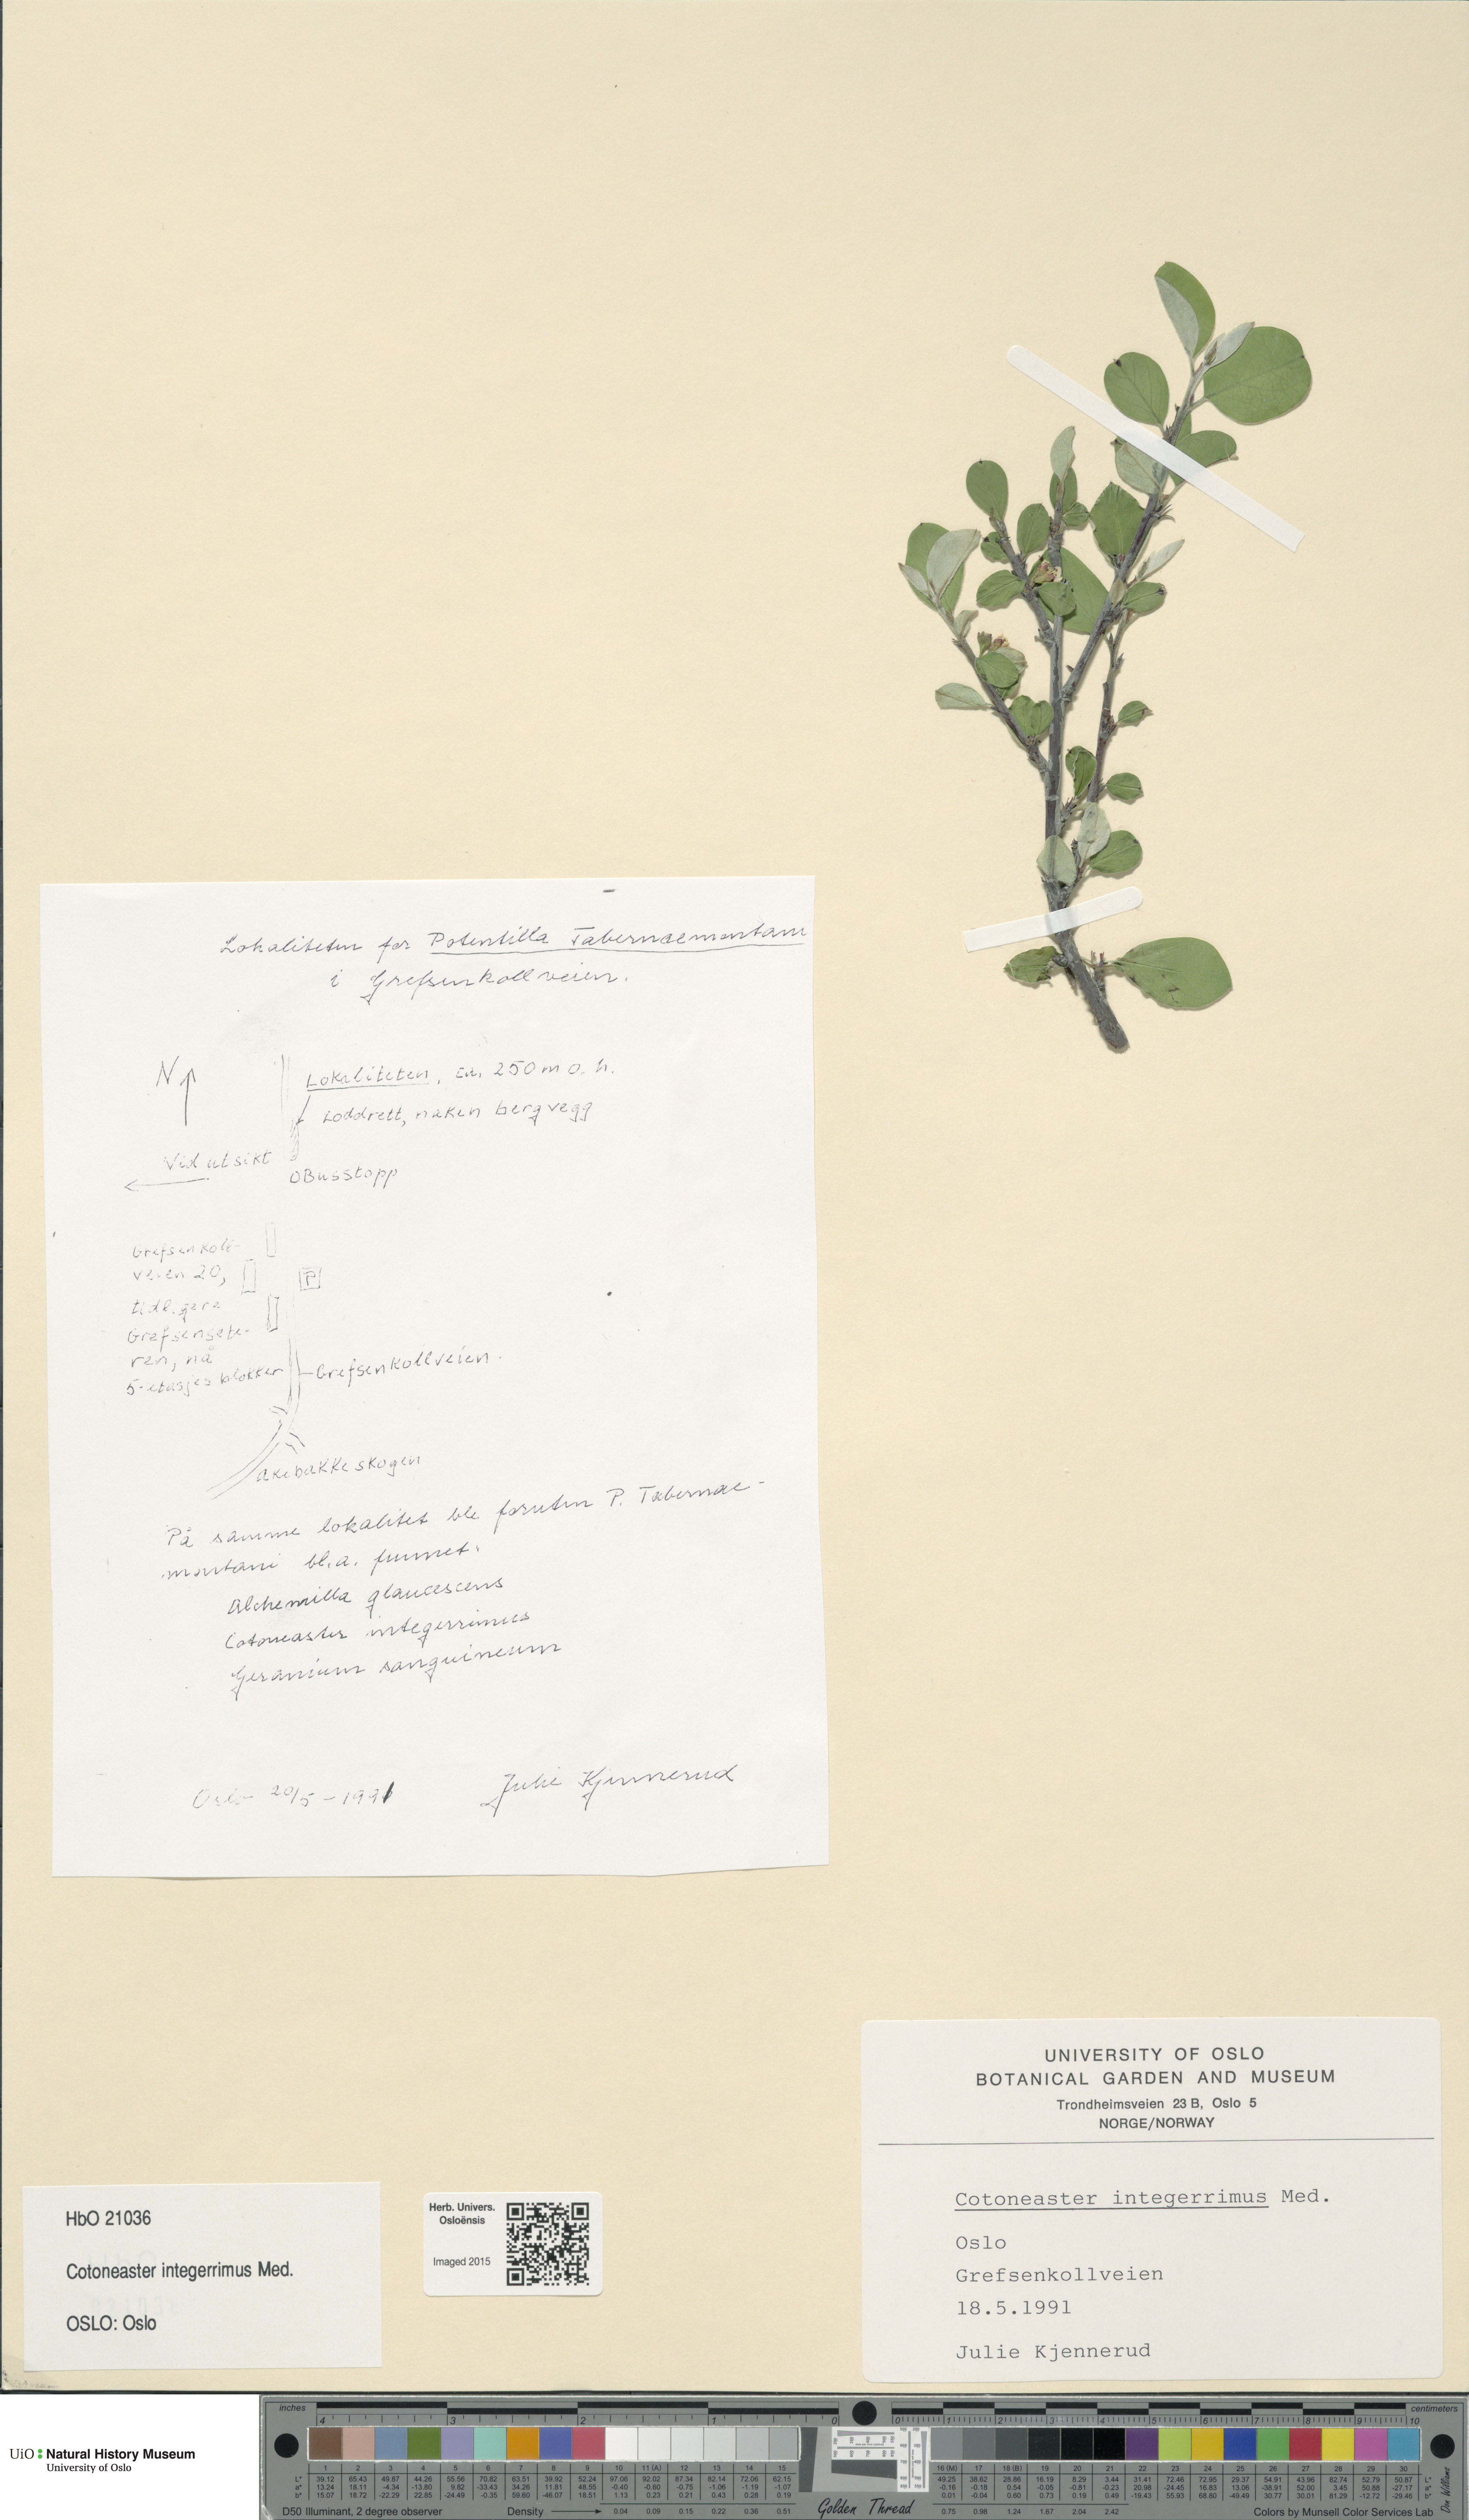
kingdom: Plantae
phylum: Tracheophyta
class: Magnoliopsida
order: Rosales
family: Rosaceae
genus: Cotoneaster
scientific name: Cotoneaster integerrimus
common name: Wild cotoneaster
